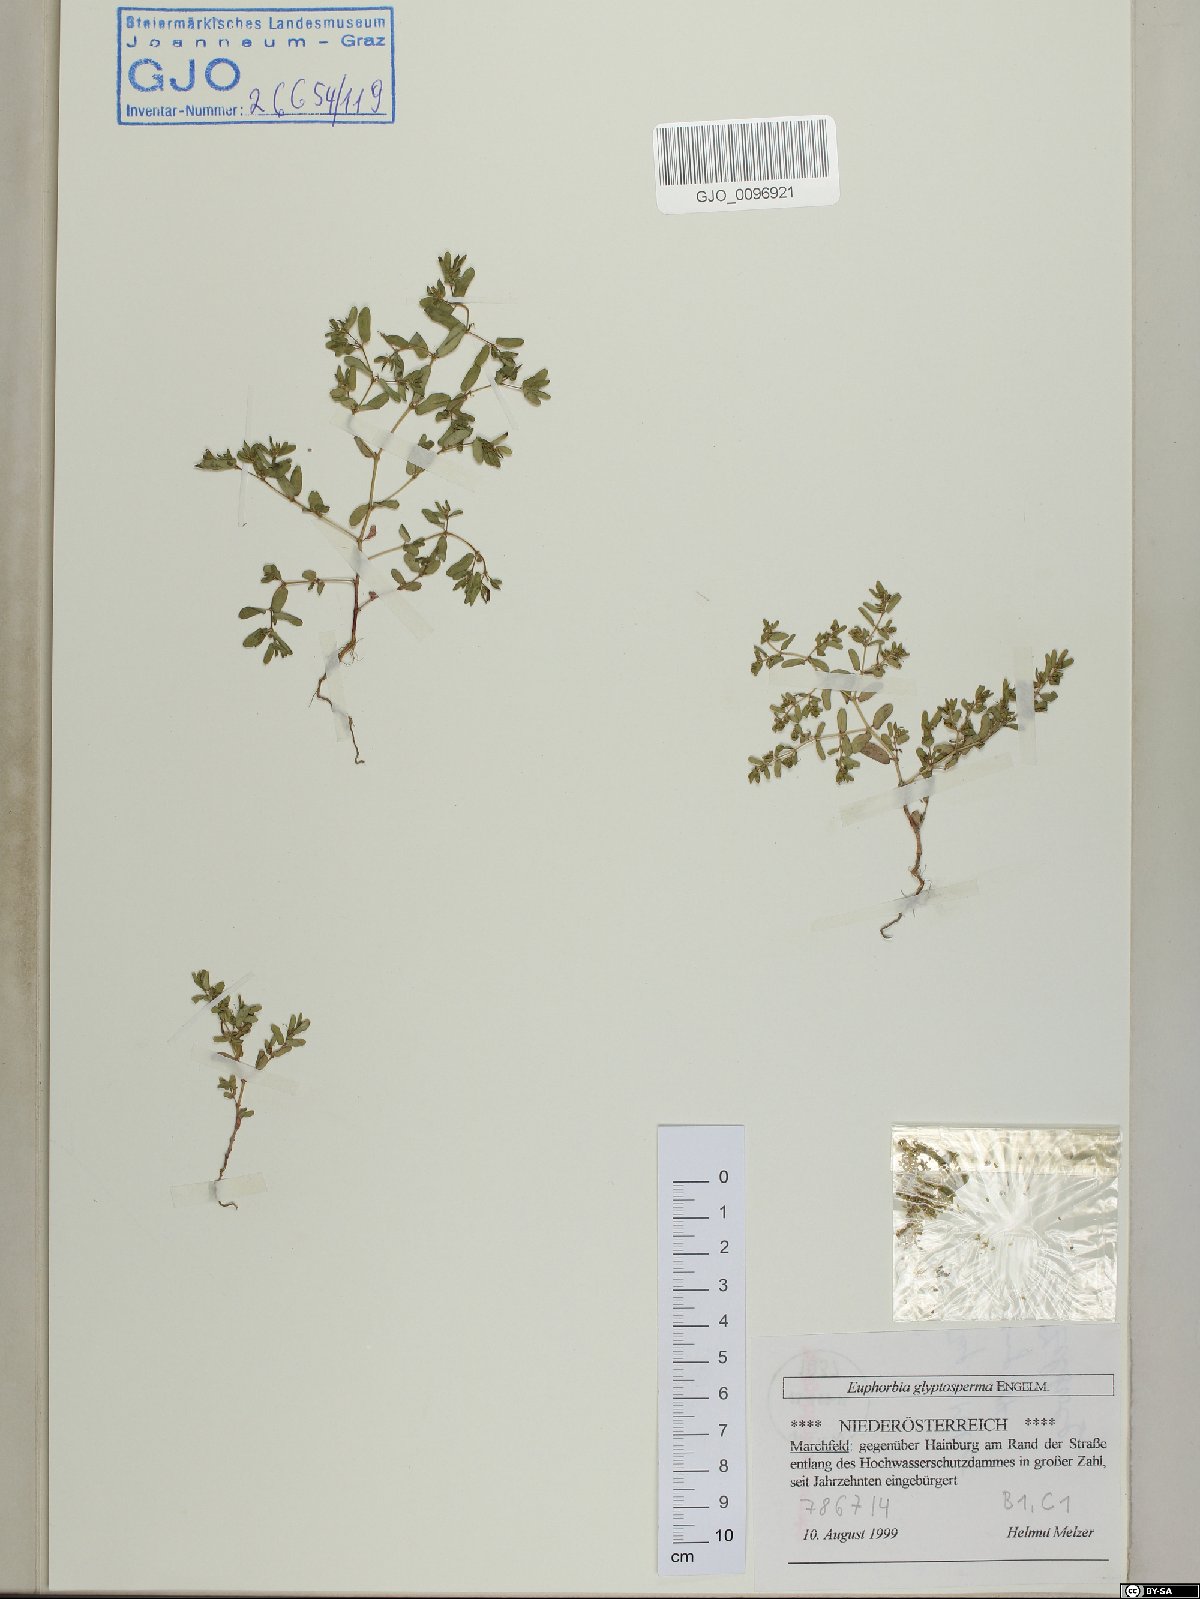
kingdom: Plantae
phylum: Tracheophyta
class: Magnoliopsida
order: Malpighiales
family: Euphorbiaceae
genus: Euphorbia
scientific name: Euphorbia glyptosperma
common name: Corrugate-seeded spurge
